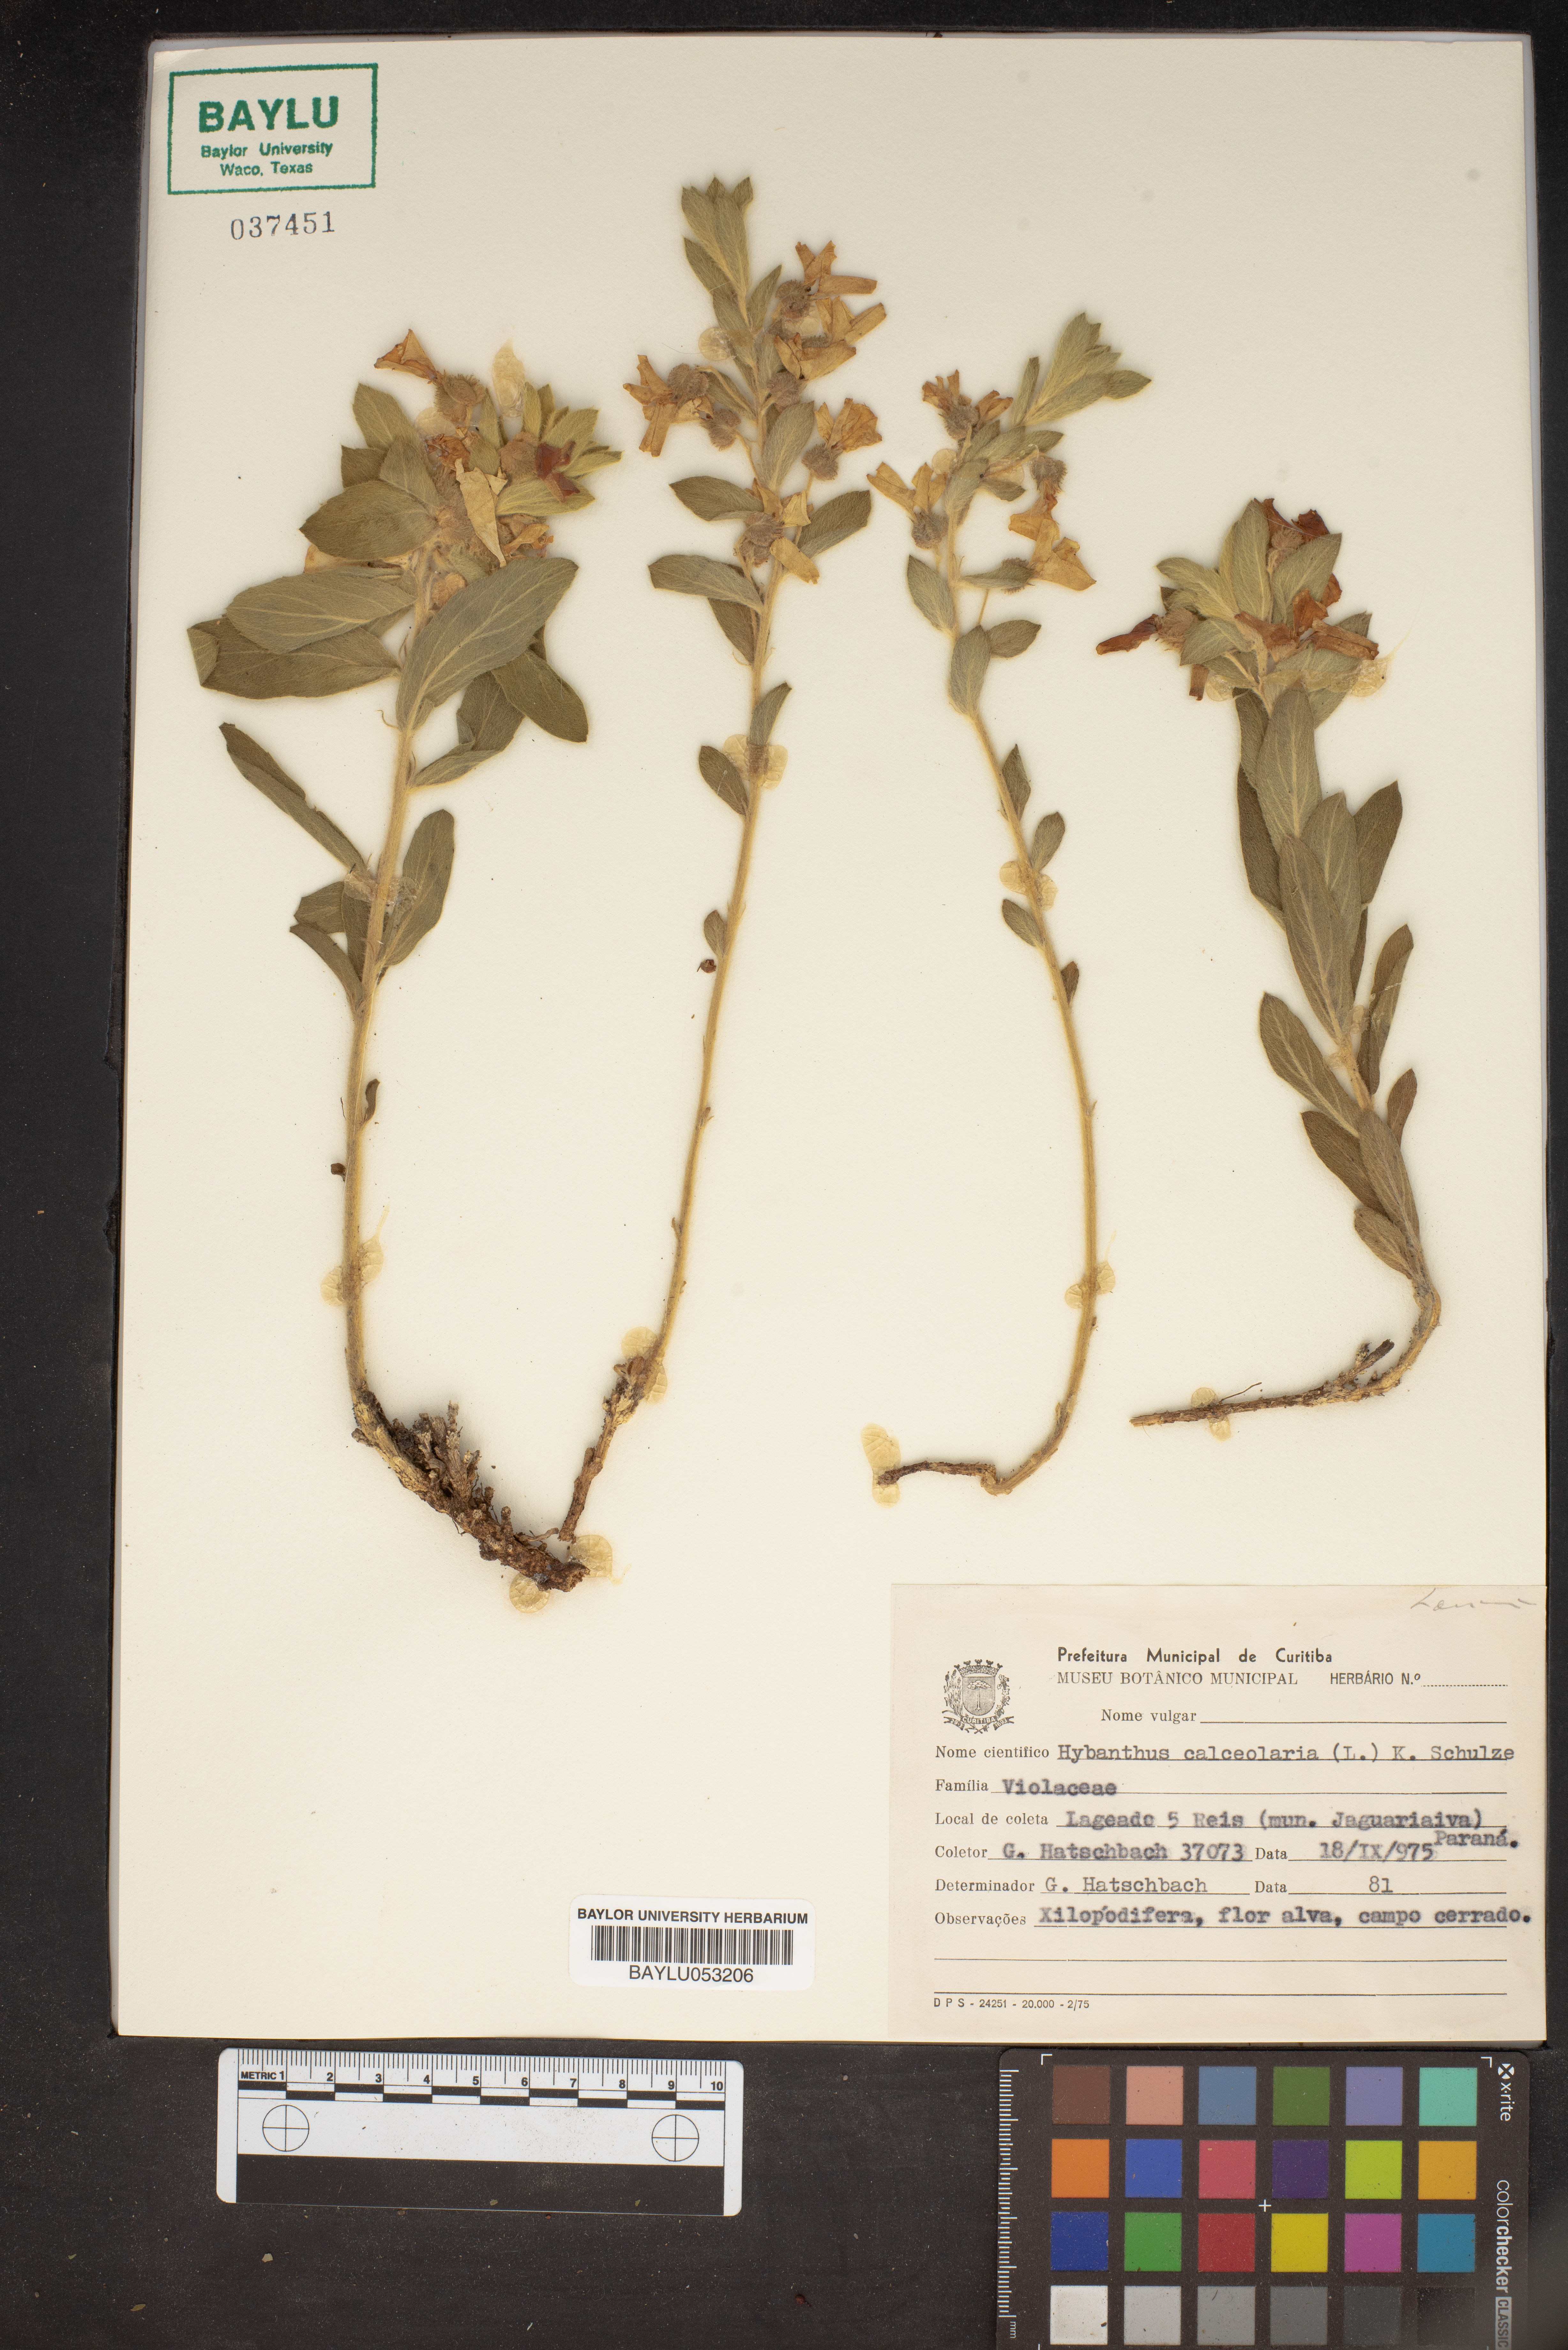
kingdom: Plantae
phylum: Tracheophyta
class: Magnoliopsida
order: Malpighiales
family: Violaceae
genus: Pombalia
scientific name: Pombalia calceolaria
